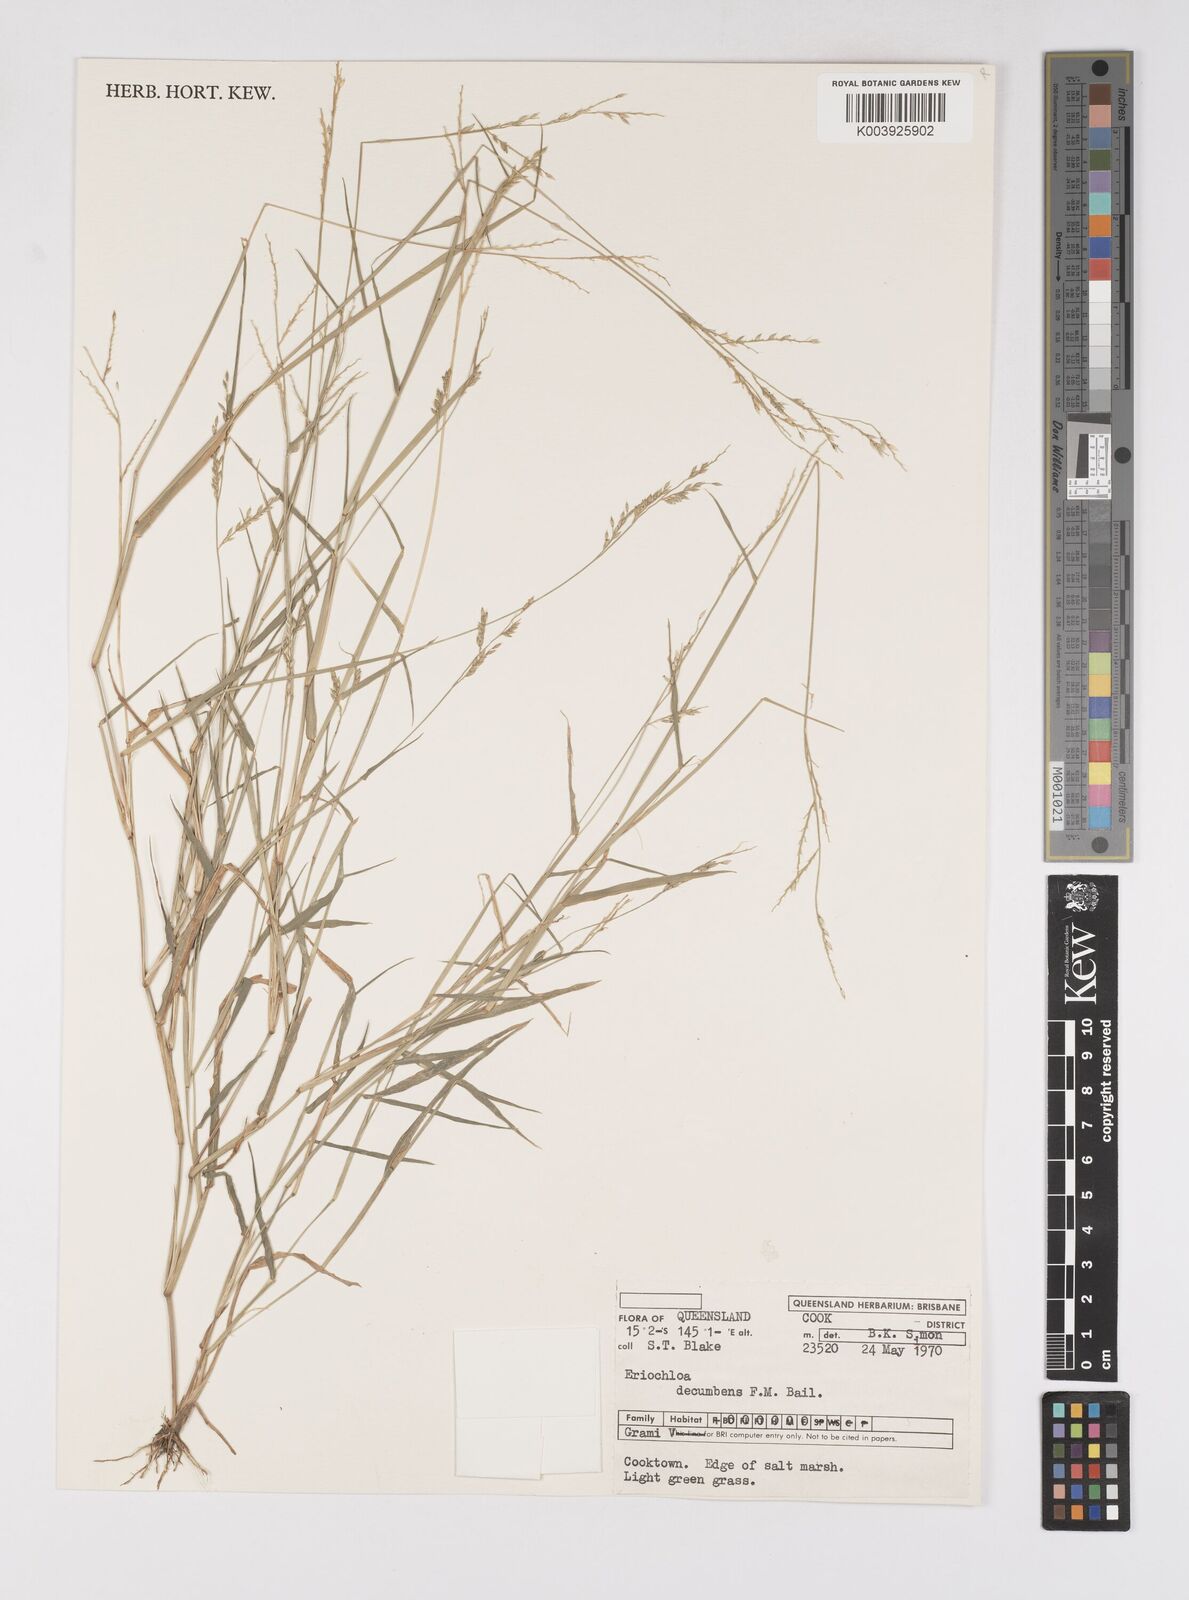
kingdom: Plantae
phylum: Tracheophyta
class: Liliopsida
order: Poales
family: Poaceae
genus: Eriochloa
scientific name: Eriochloa barbatus
